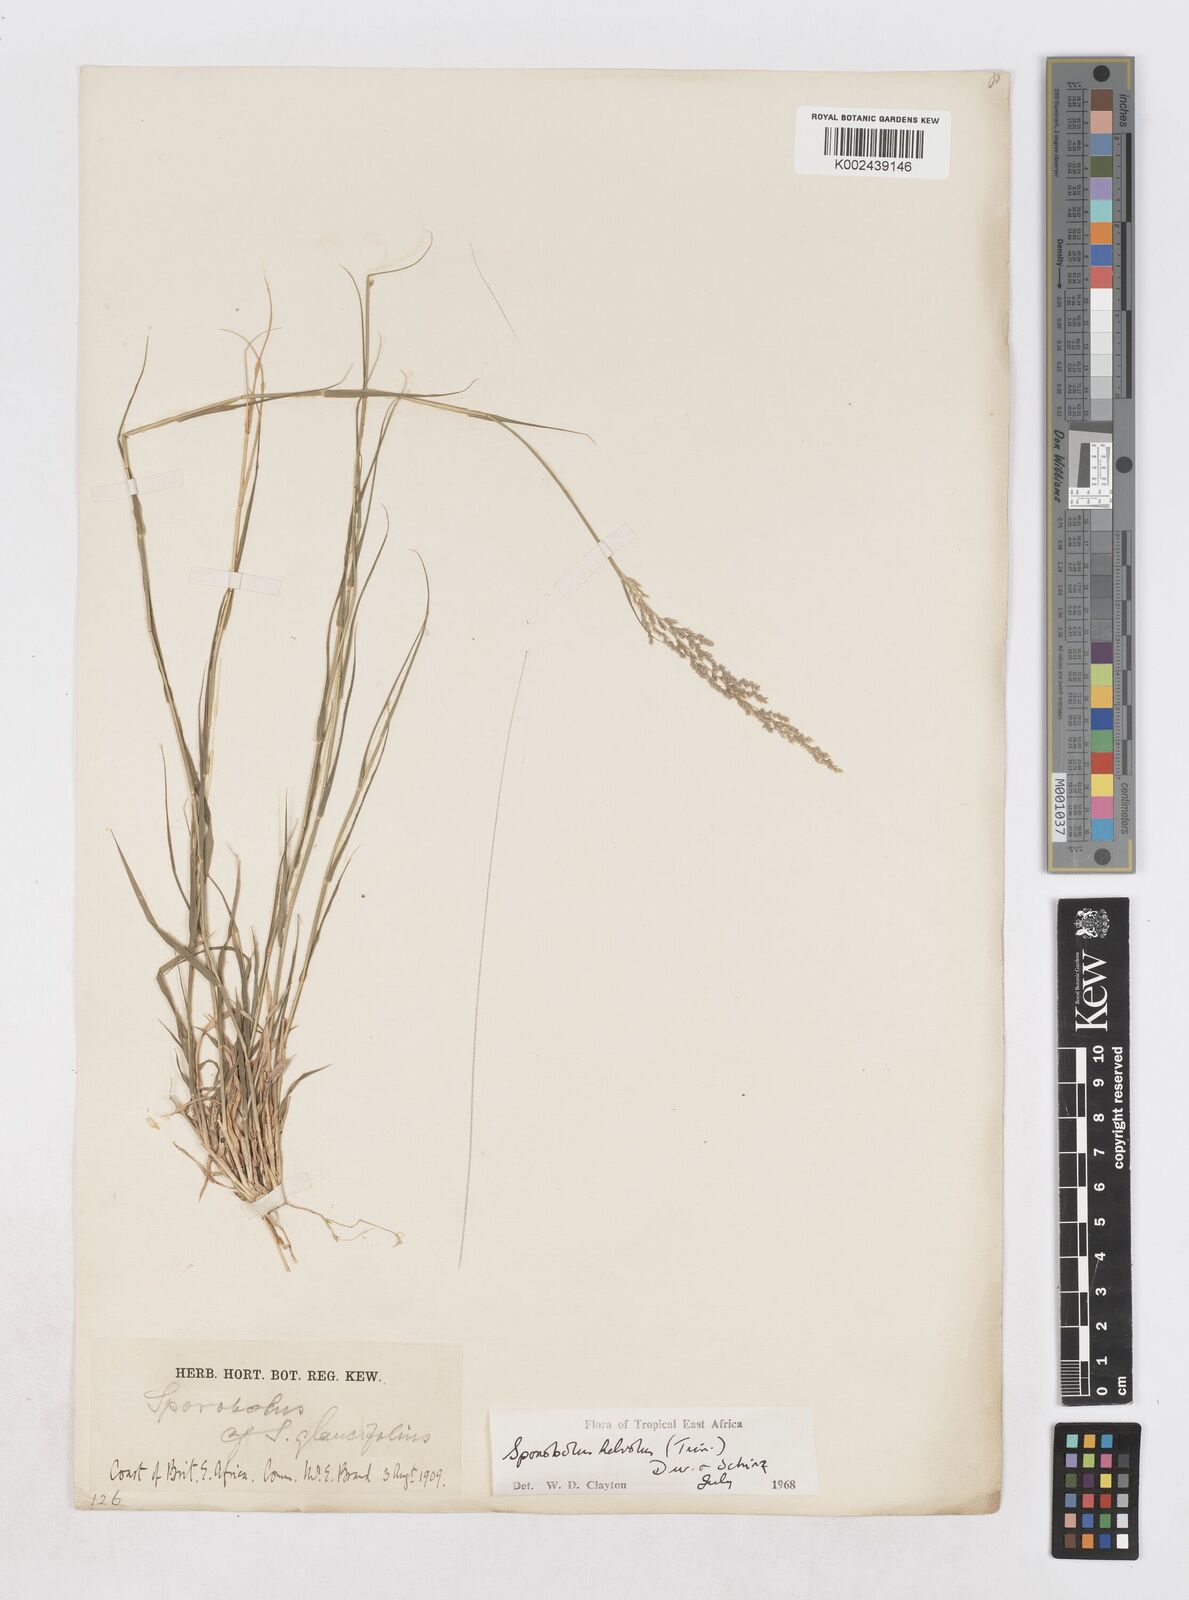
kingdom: Plantae
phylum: Tracheophyta
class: Liliopsida
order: Poales
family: Poaceae
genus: Sporobolus
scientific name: Sporobolus helvolus
